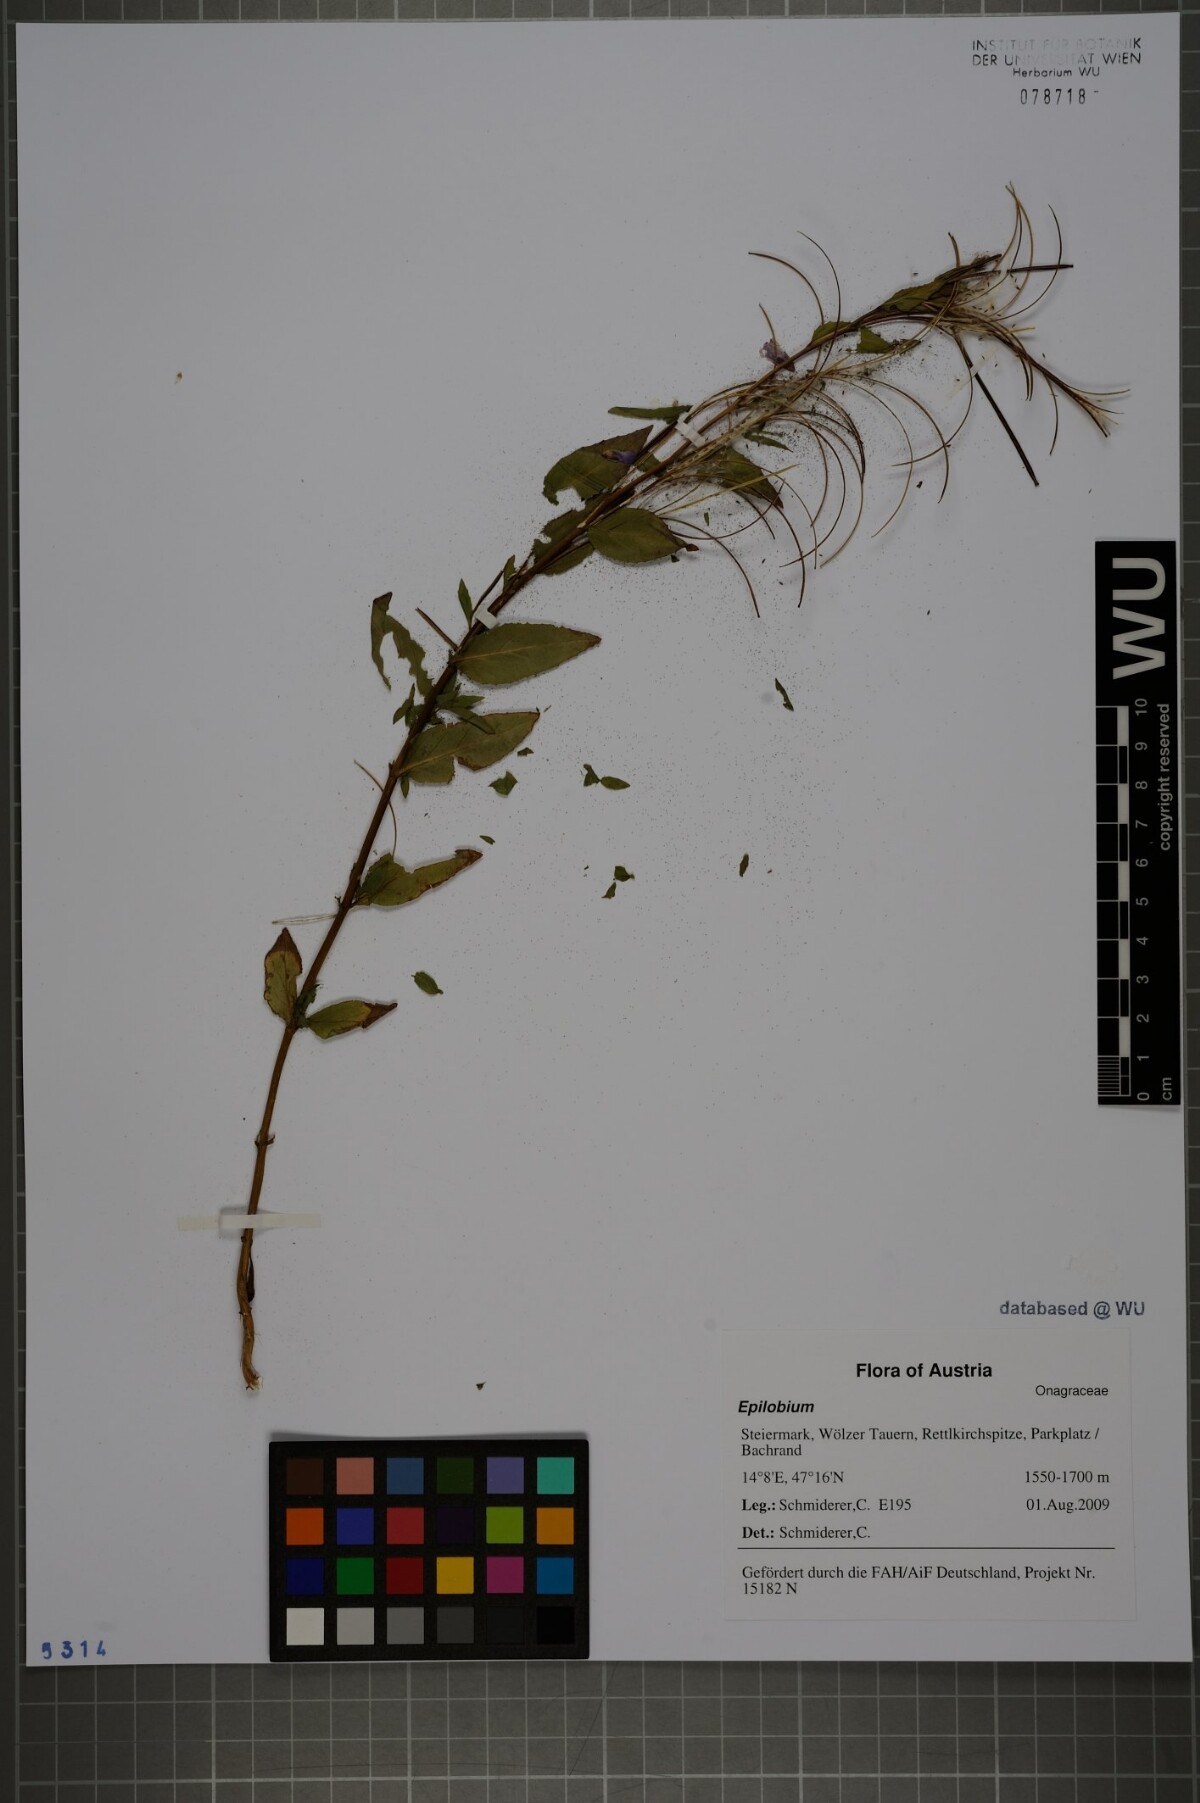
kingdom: Plantae
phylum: Tracheophyta
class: Magnoliopsida
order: Myrtales
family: Onagraceae
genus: Epilobium
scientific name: Epilobium alsinifolium
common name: Chickweed willowherb
